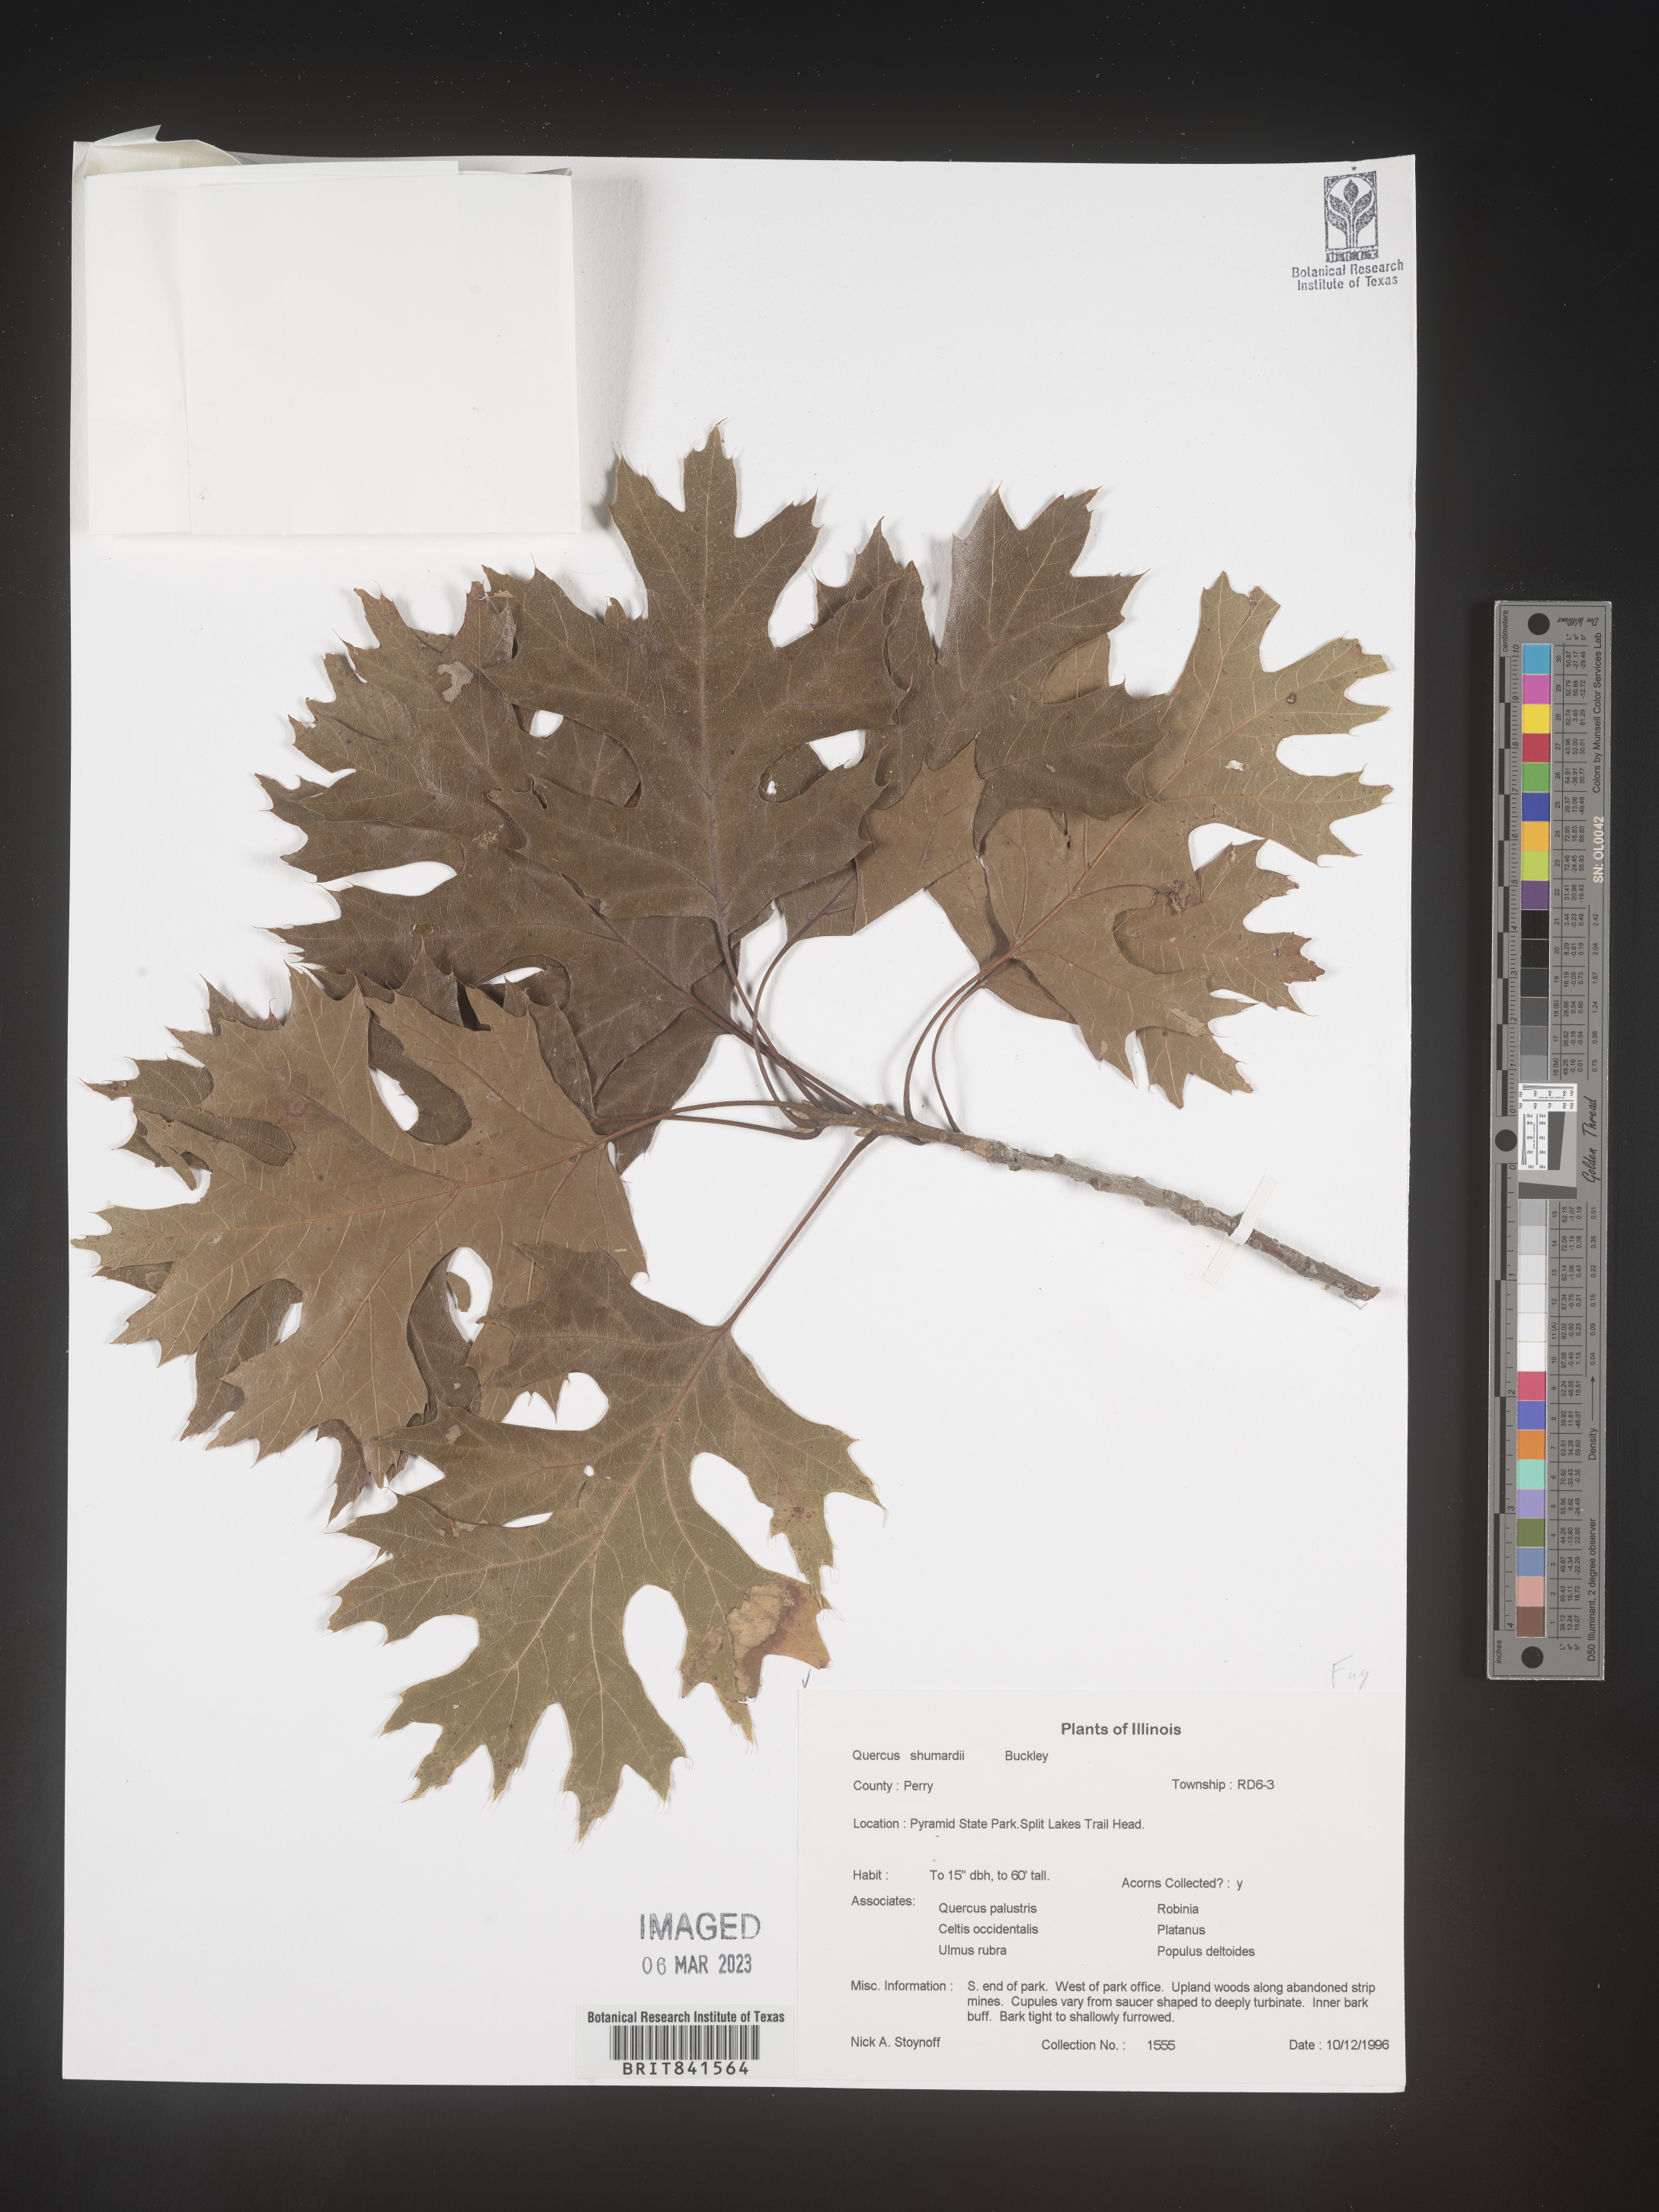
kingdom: Plantae
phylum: Tracheophyta
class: Magnoliopsida
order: Fagales
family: Fagaceae
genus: Quercus
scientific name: Quercus shumardii
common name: Shumard oak
